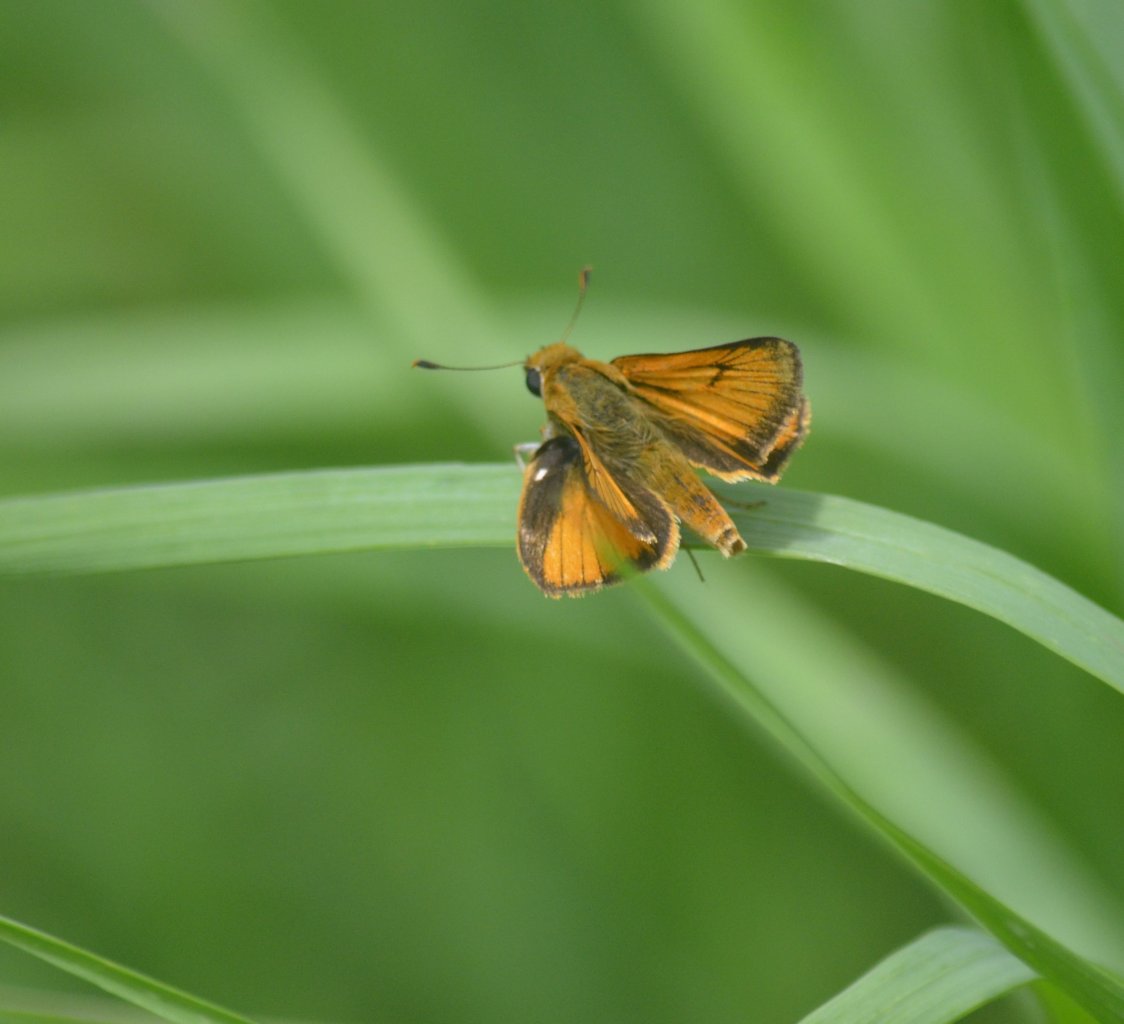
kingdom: Animalia
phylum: Arthropoda
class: Insecta
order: Lepidoptera
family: Hesperiidae
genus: Atrytone
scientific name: Atrytone delaware
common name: Delaware Skipper
